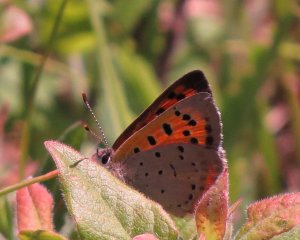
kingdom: Animalia
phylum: Arthropoda
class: Insecta
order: Lepidoptera
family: Lycaenidae
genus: Lycaena
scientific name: Lycaena phlaeas
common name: American Copper
